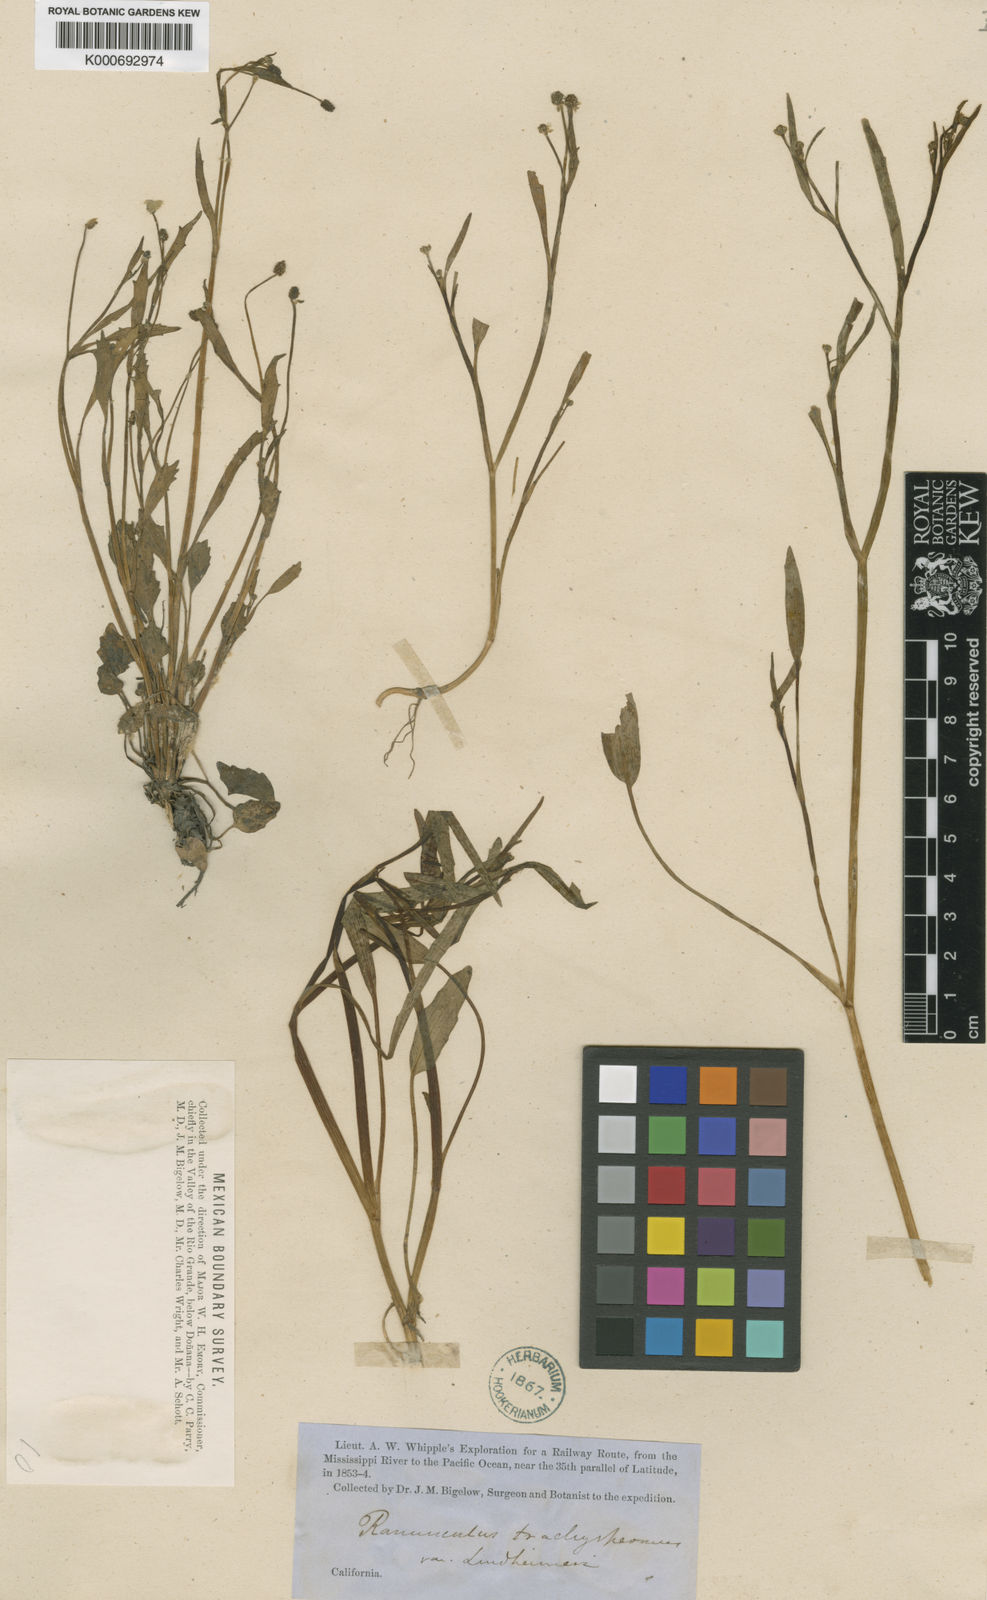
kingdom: Plantae
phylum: Tracheophyta
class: Magnoliopsida
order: Ranunculales
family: Ranunculaceae
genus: Ranunculus
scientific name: Ranunculus pusillus
